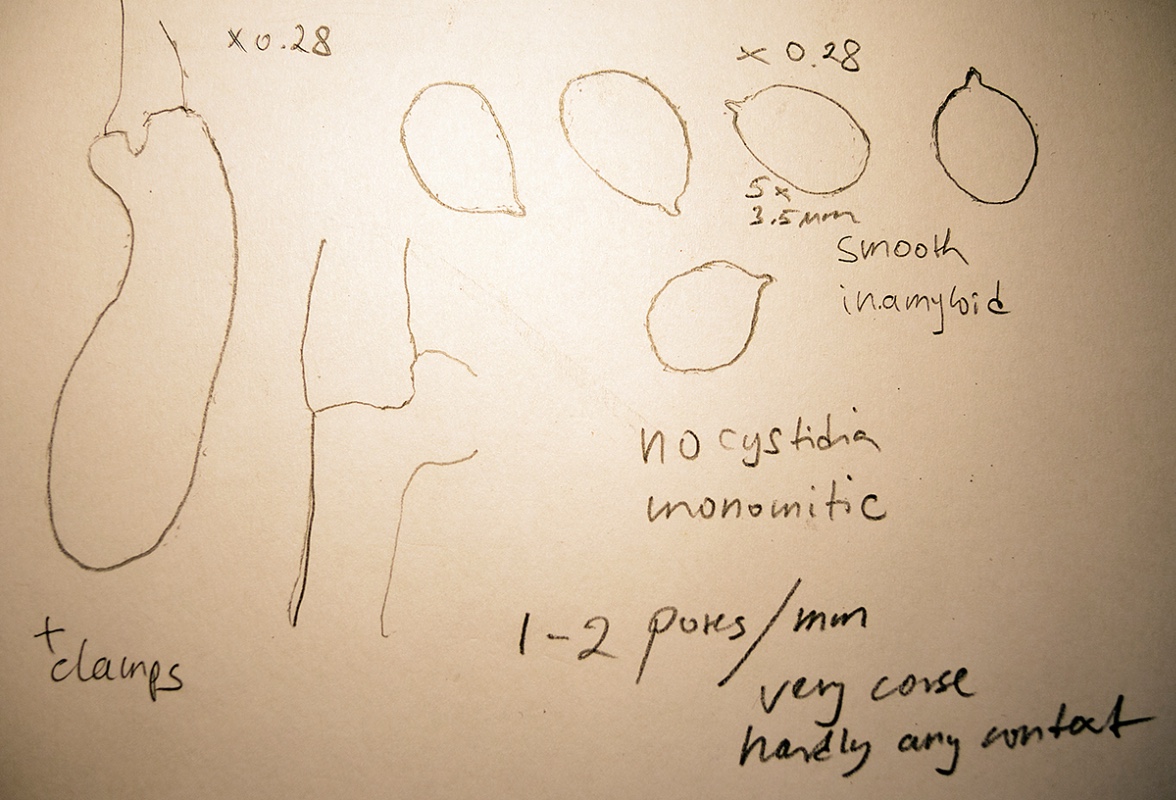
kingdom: Fungi
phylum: Basidiomycota
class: Agaricomycetes
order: Polyporales
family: Cerrenaceae
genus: Raduliporus
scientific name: Raduliporus aneirinus
